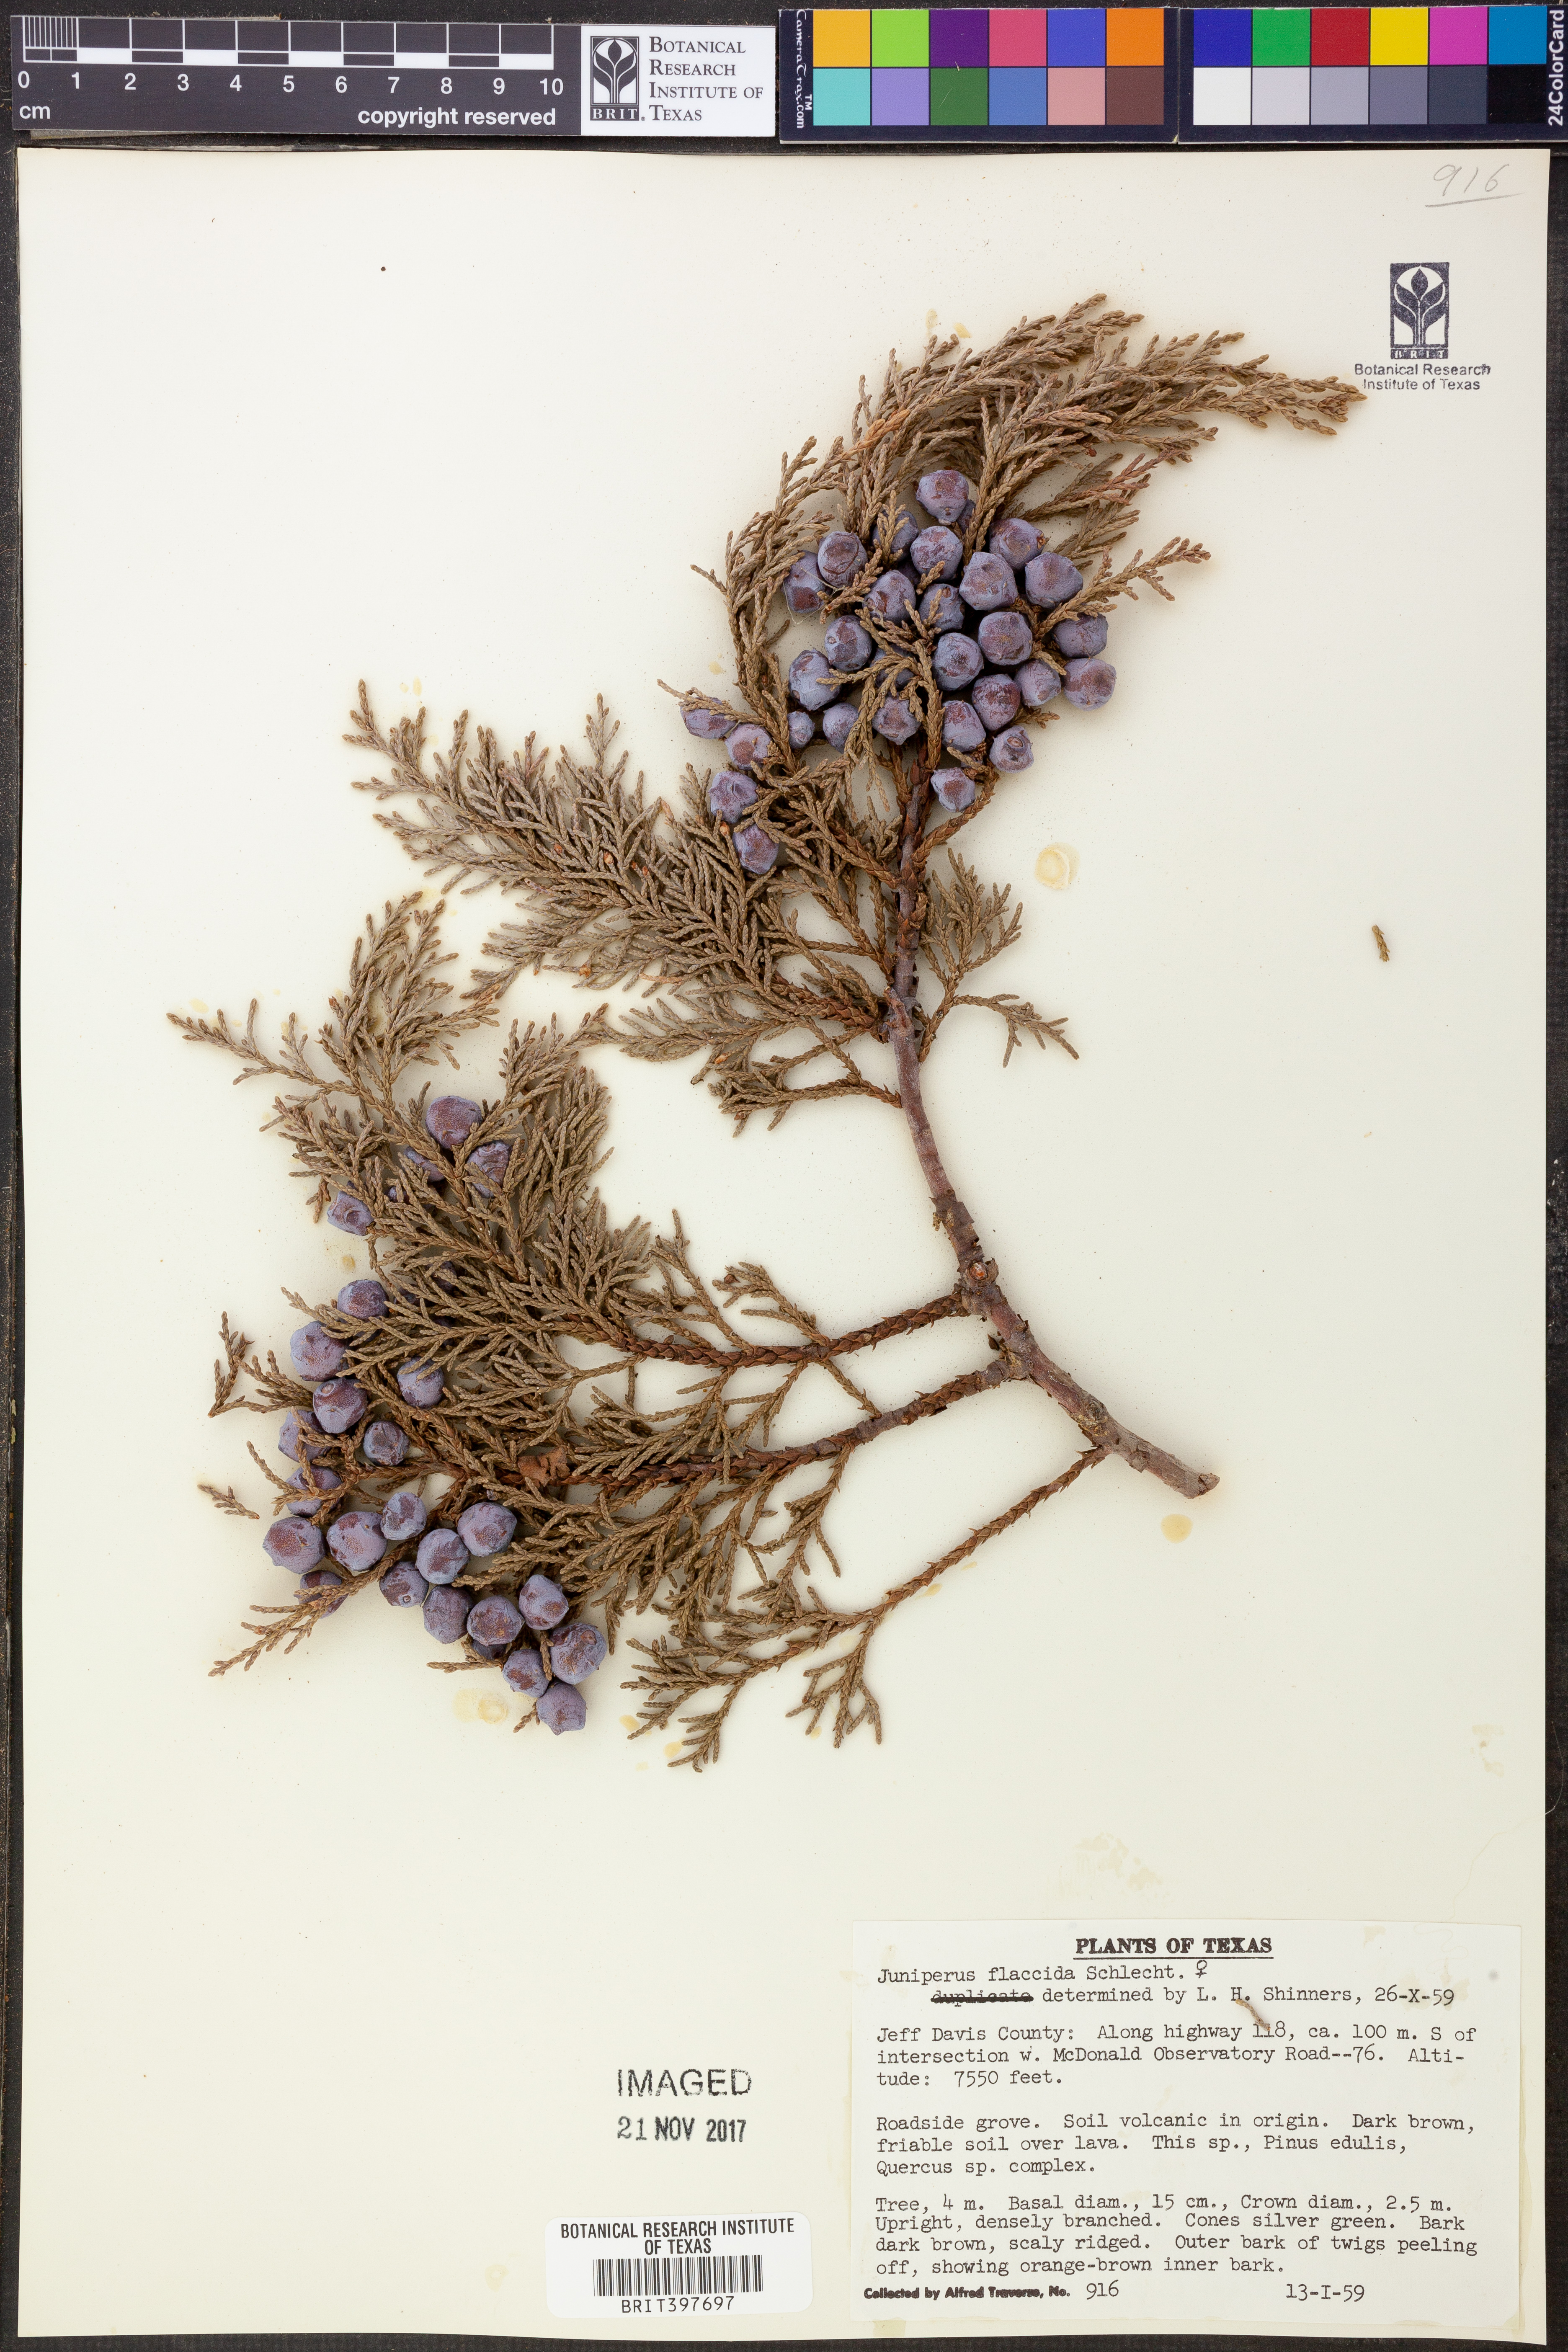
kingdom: Plantae
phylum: Tracheophyta
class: Pinopsida
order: Pinales
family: Cupressaceae
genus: Juniperus
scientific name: Juniperus flaccida
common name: Drooping juniper
